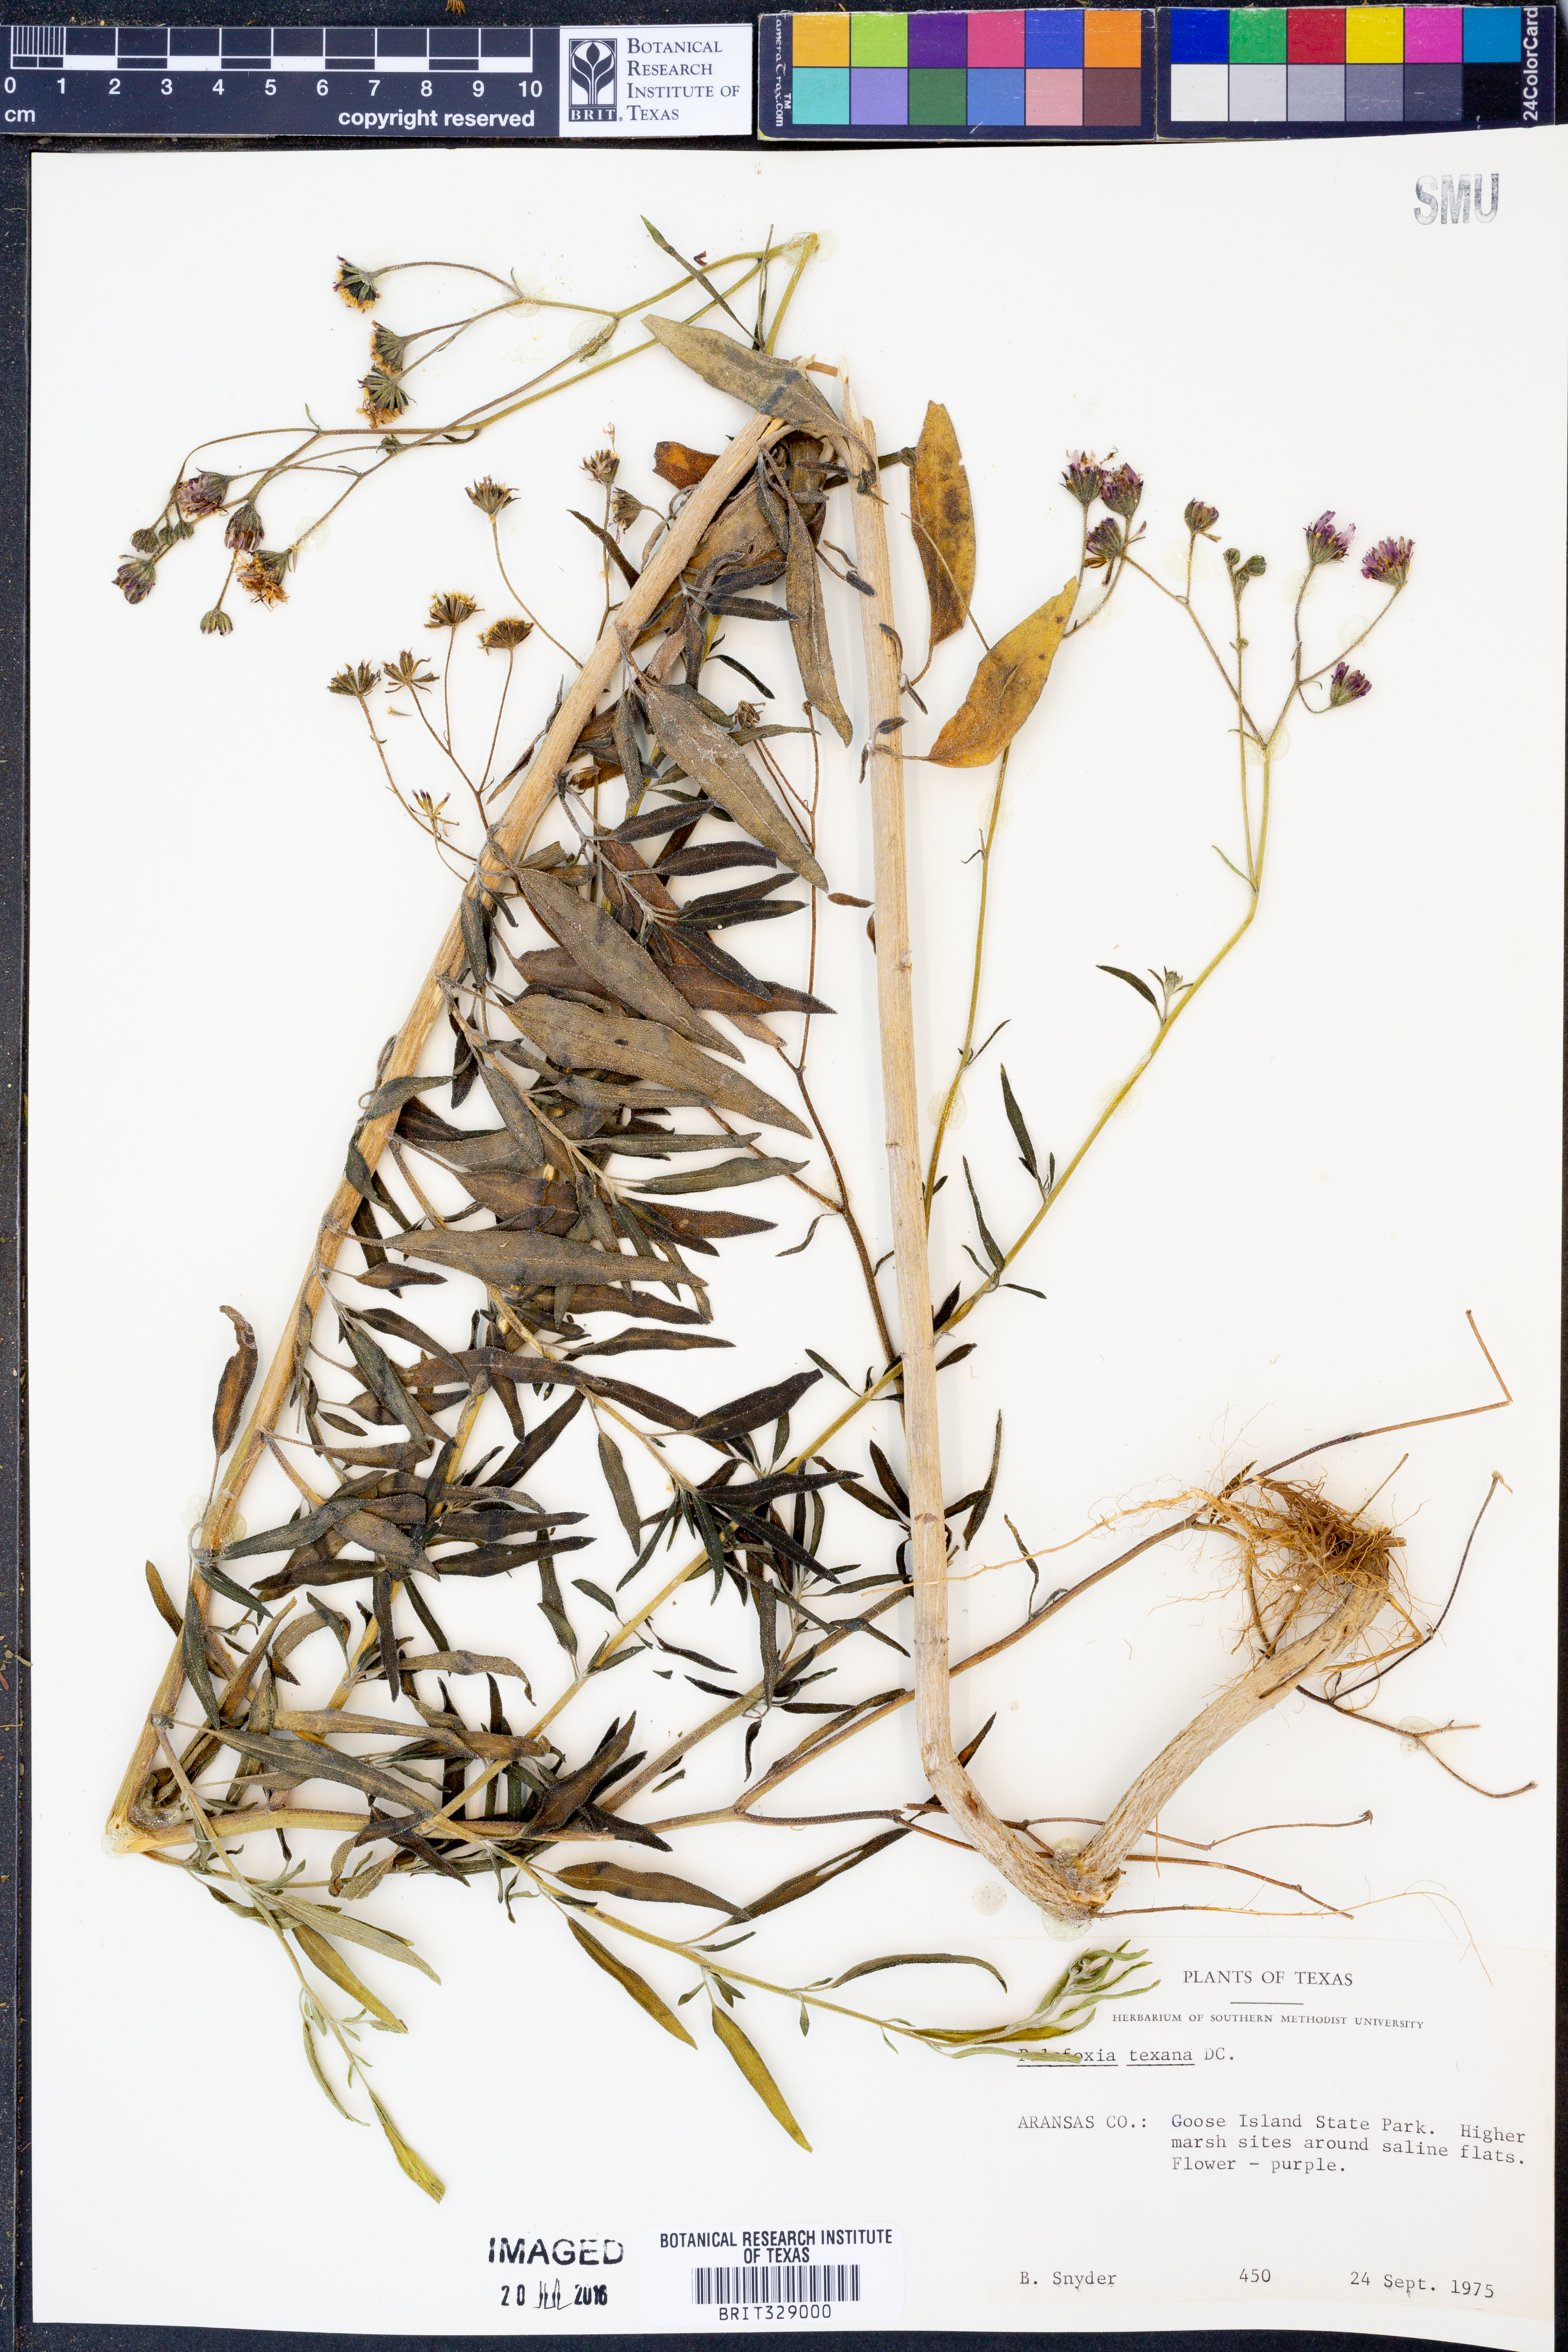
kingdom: Plantae
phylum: Tracheophyta
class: Magnoliopsida
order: Asterales
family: Asteraceae
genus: Palafoxia
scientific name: Palafoxia texana
